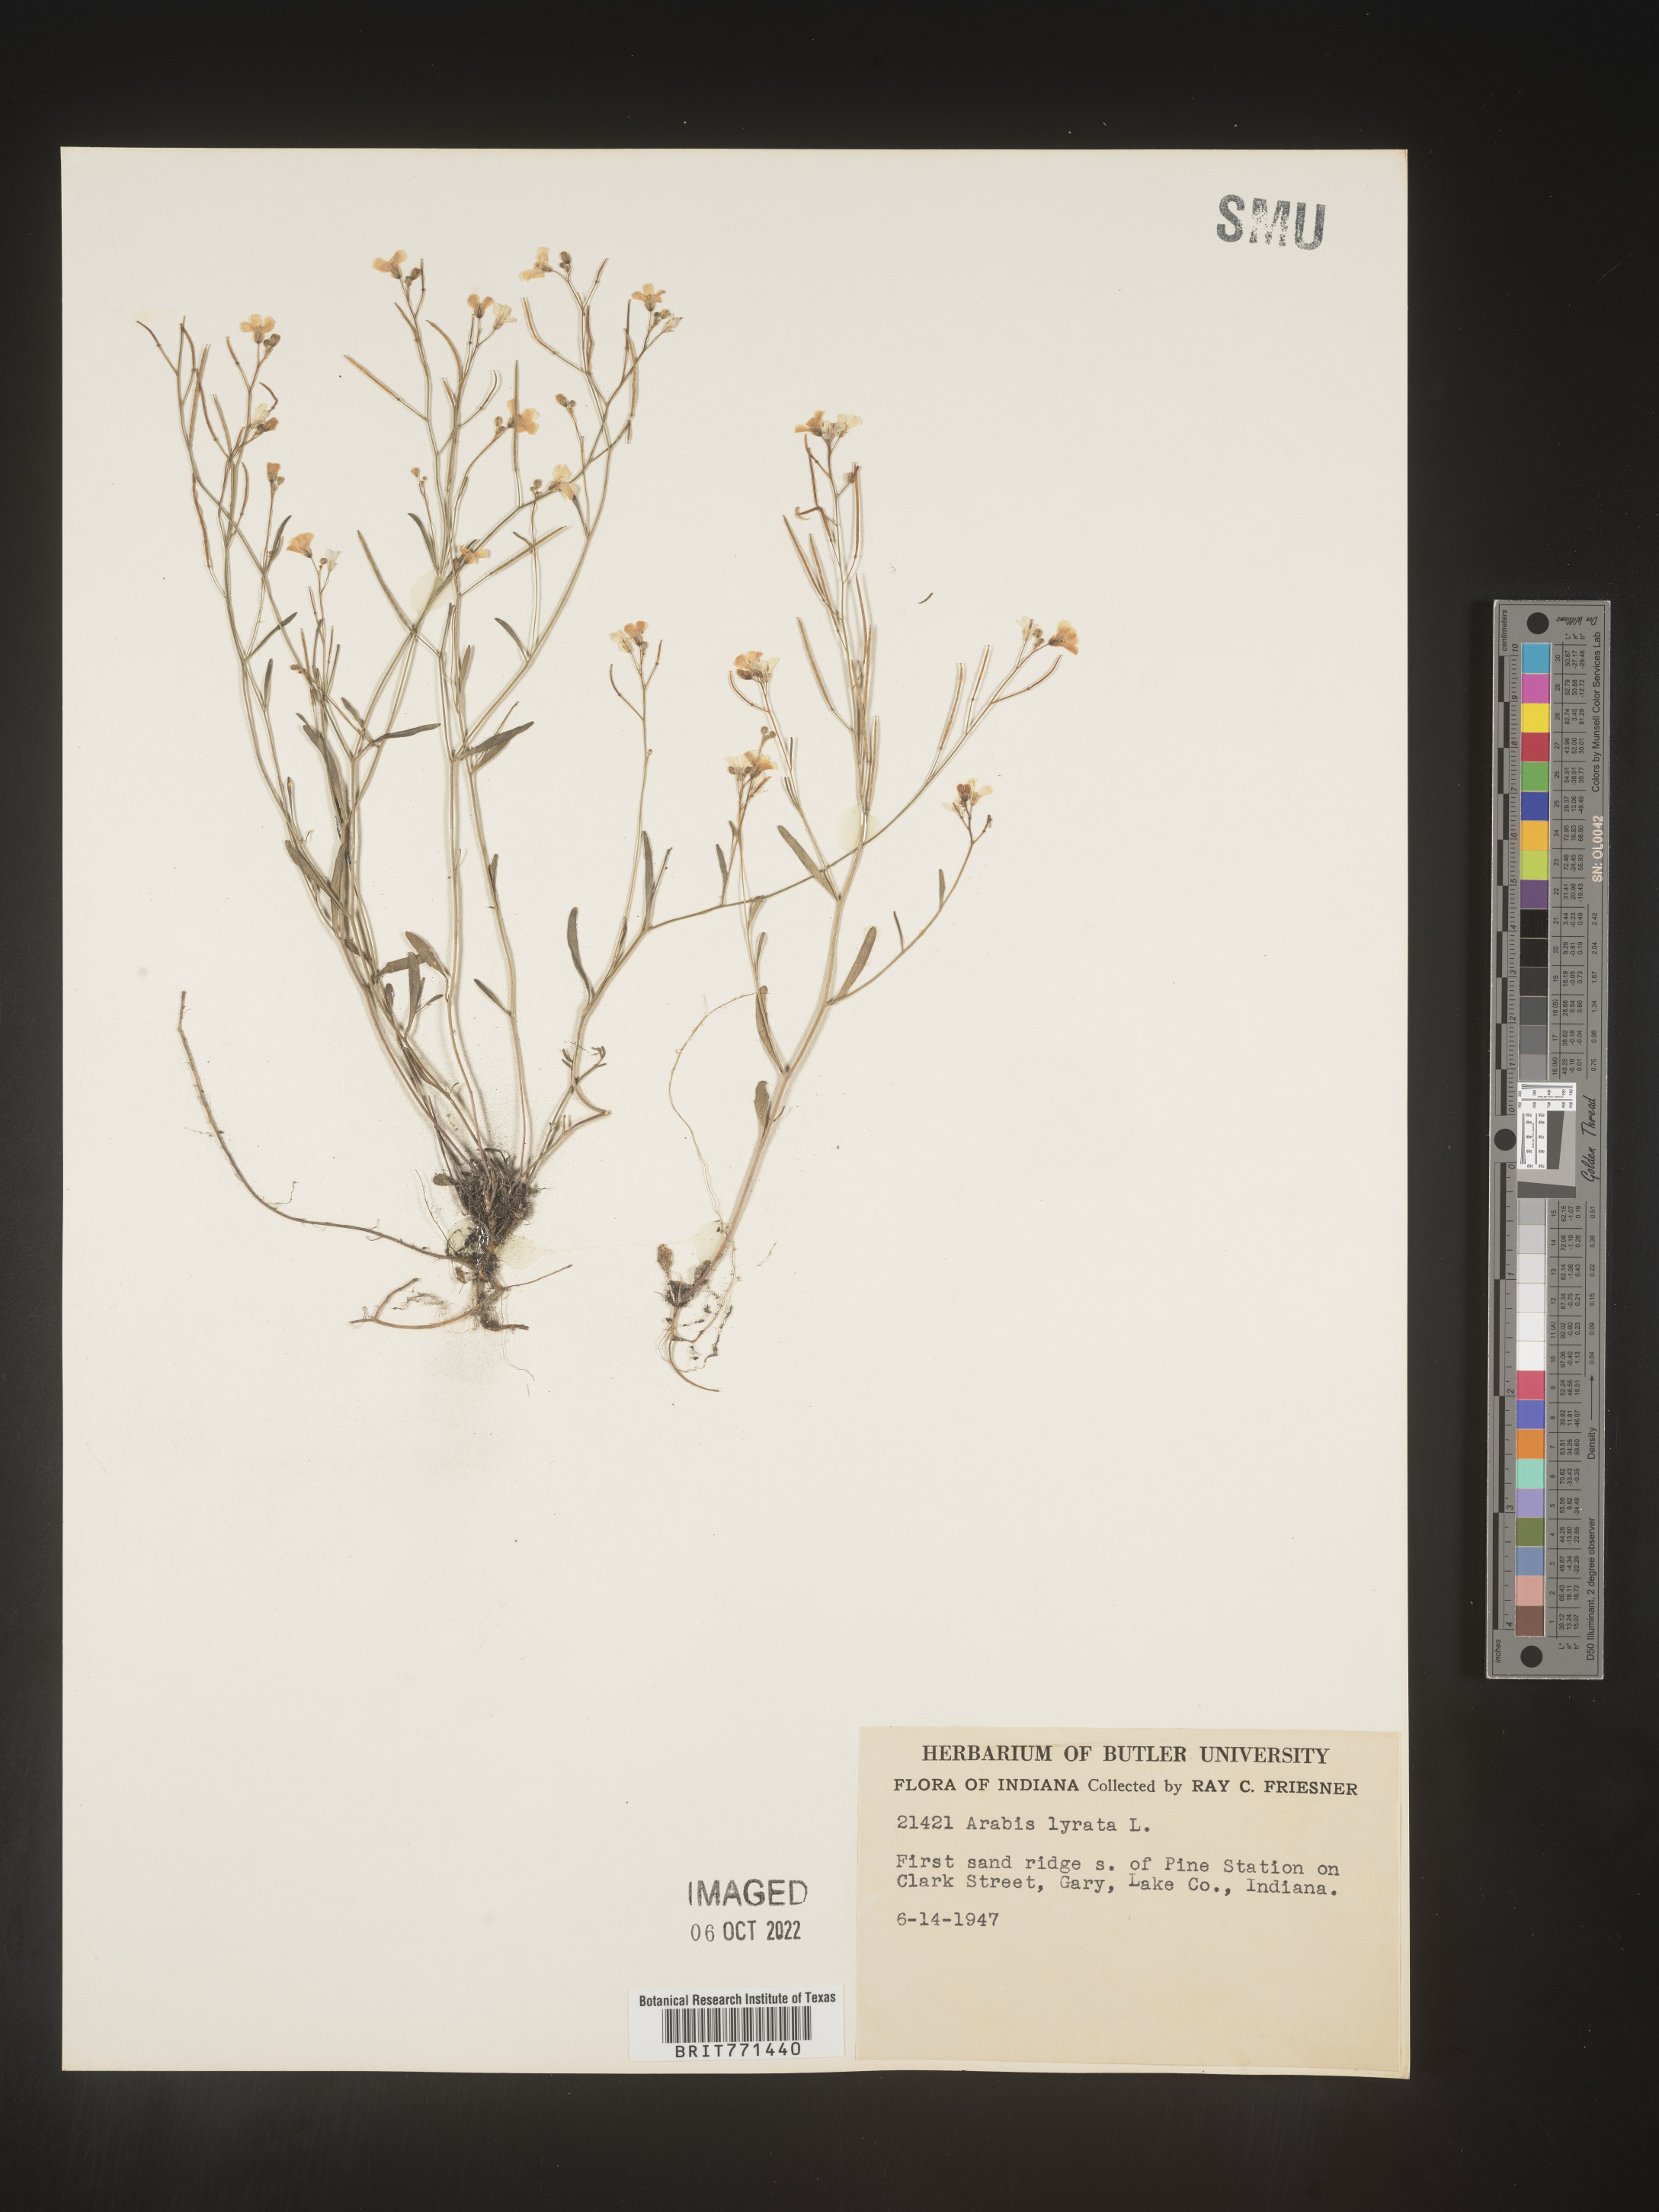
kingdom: Plantae
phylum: Tracheophyta
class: Magnoliopsida
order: Brassicales
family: Brassicaceae
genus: Arabidopsis
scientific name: Arabidopsis lyrata
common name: Lyrate rockcress
